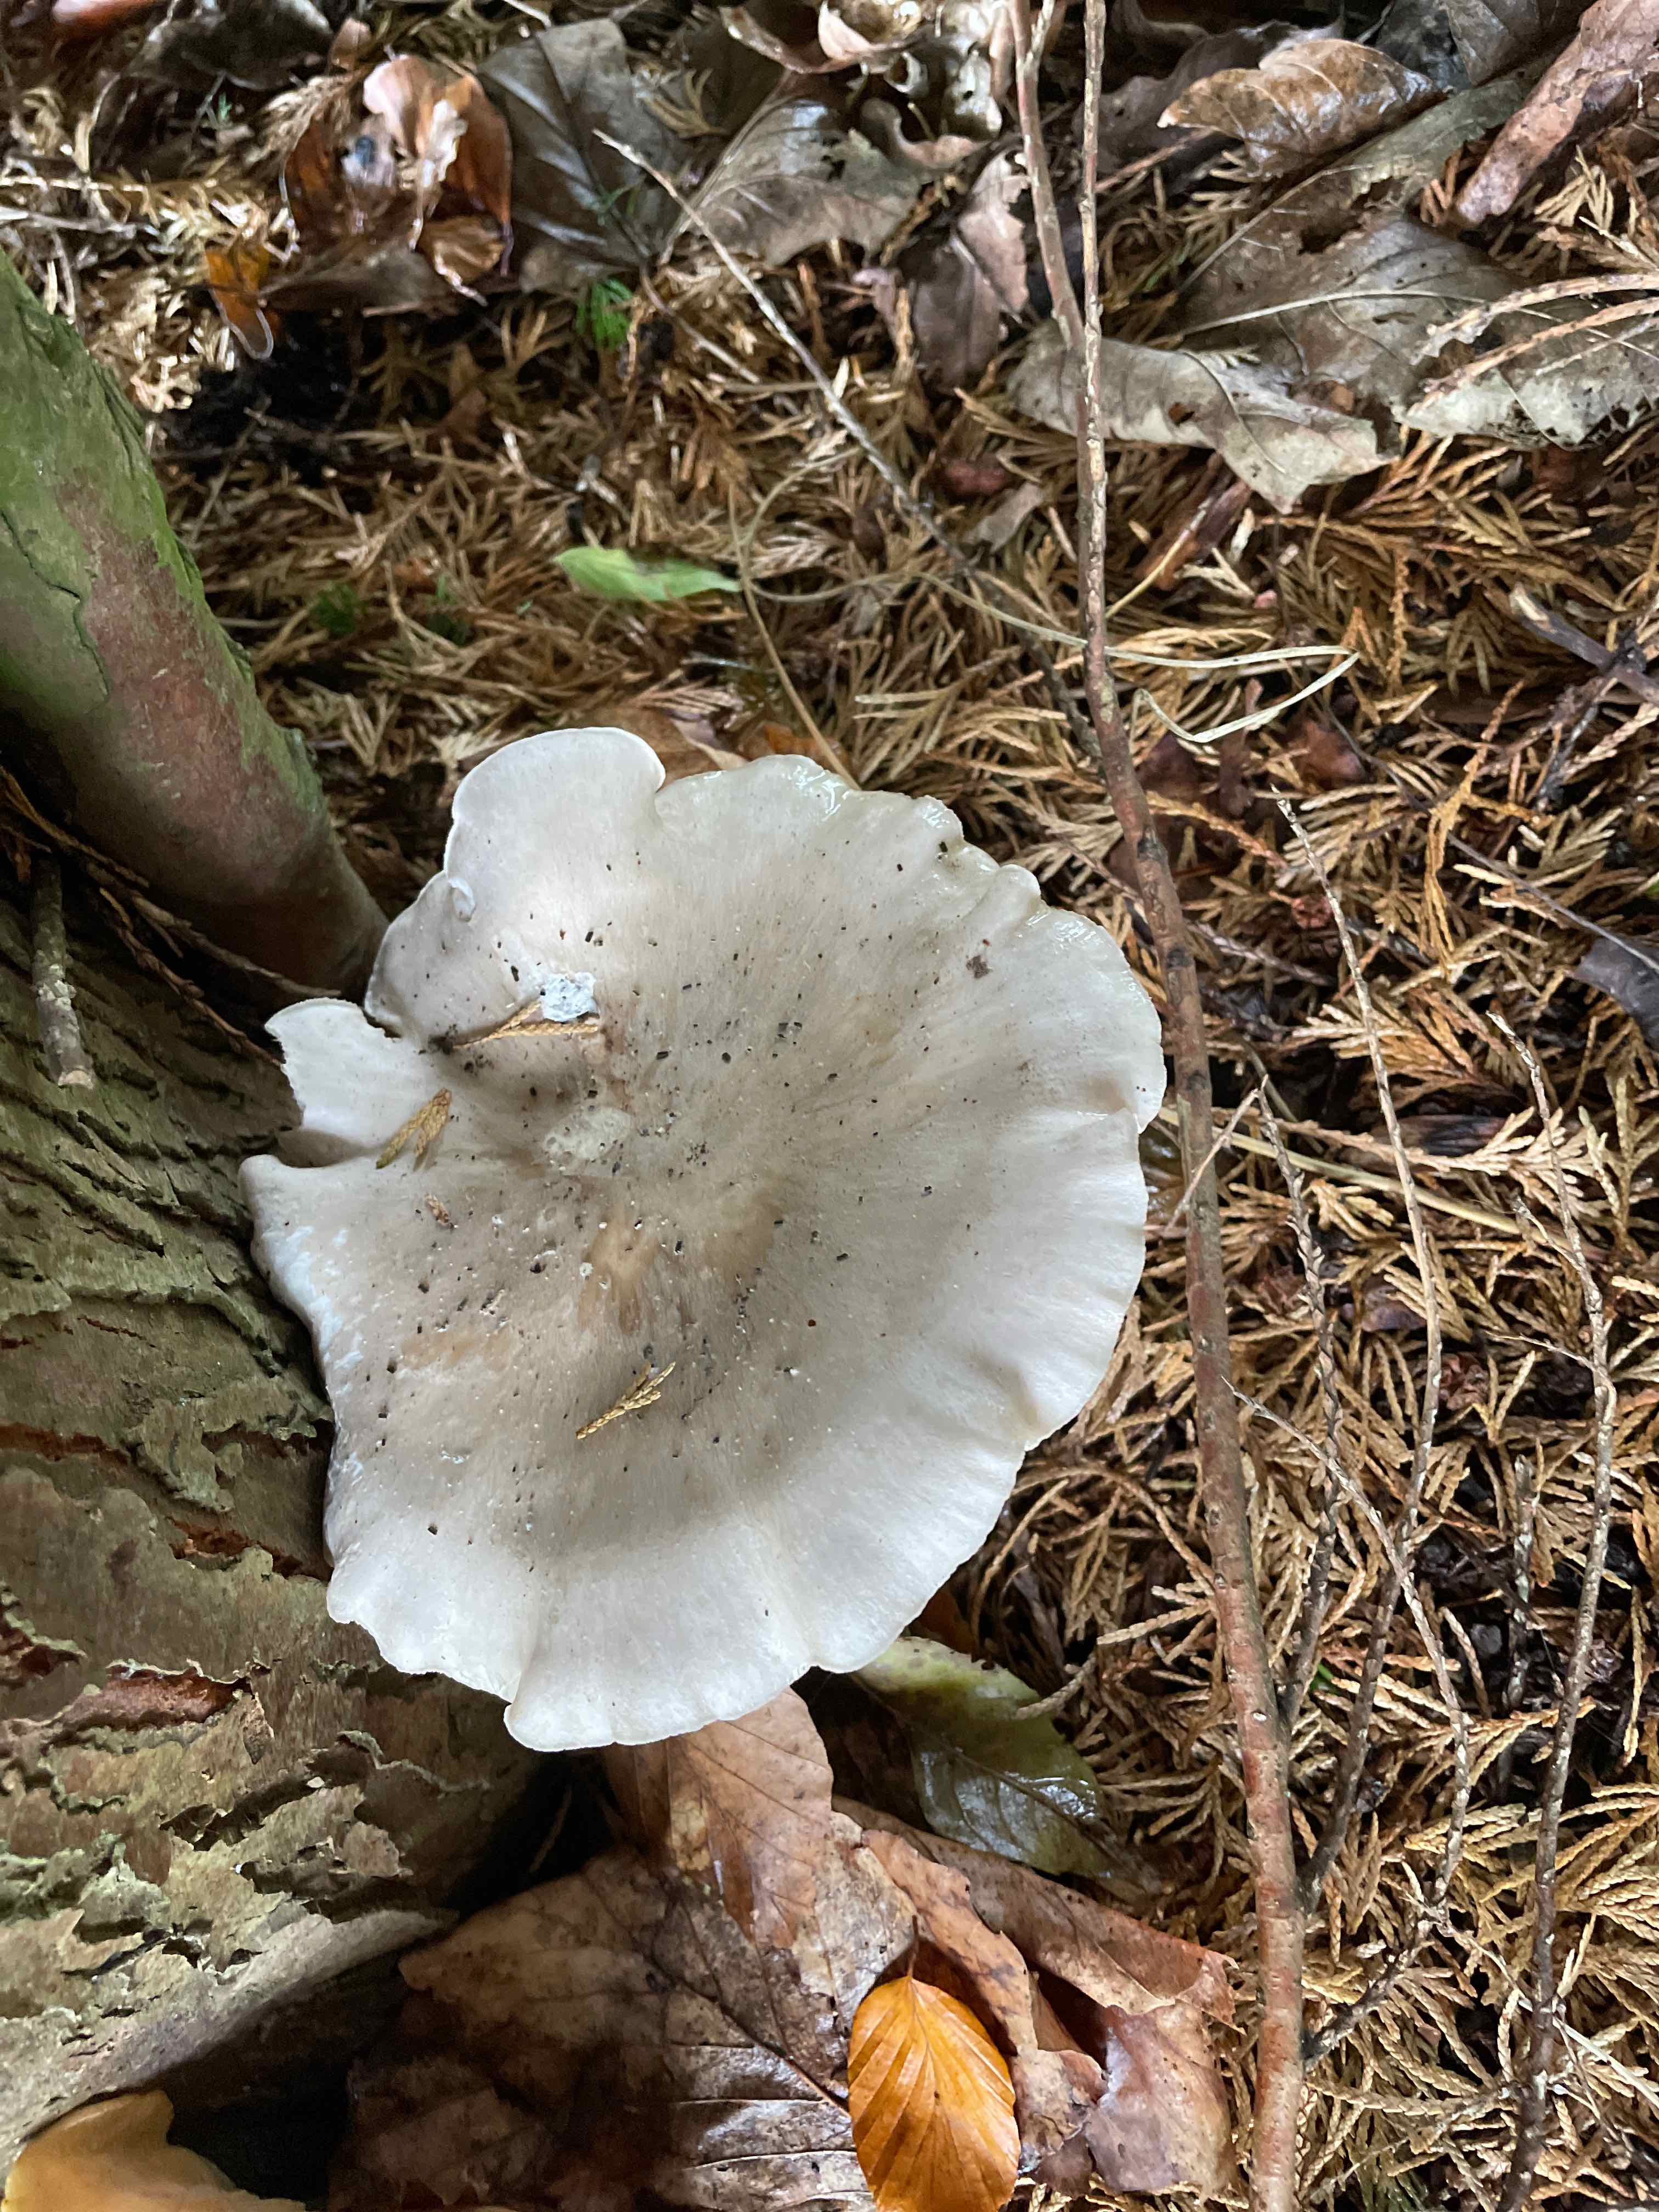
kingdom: Fungi
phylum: Basidiomycota
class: Agaricomycetes
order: Agaricales
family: Tricholomataceae
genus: Clitocybe
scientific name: Clitocybe nebularis
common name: tåge-tragthat
